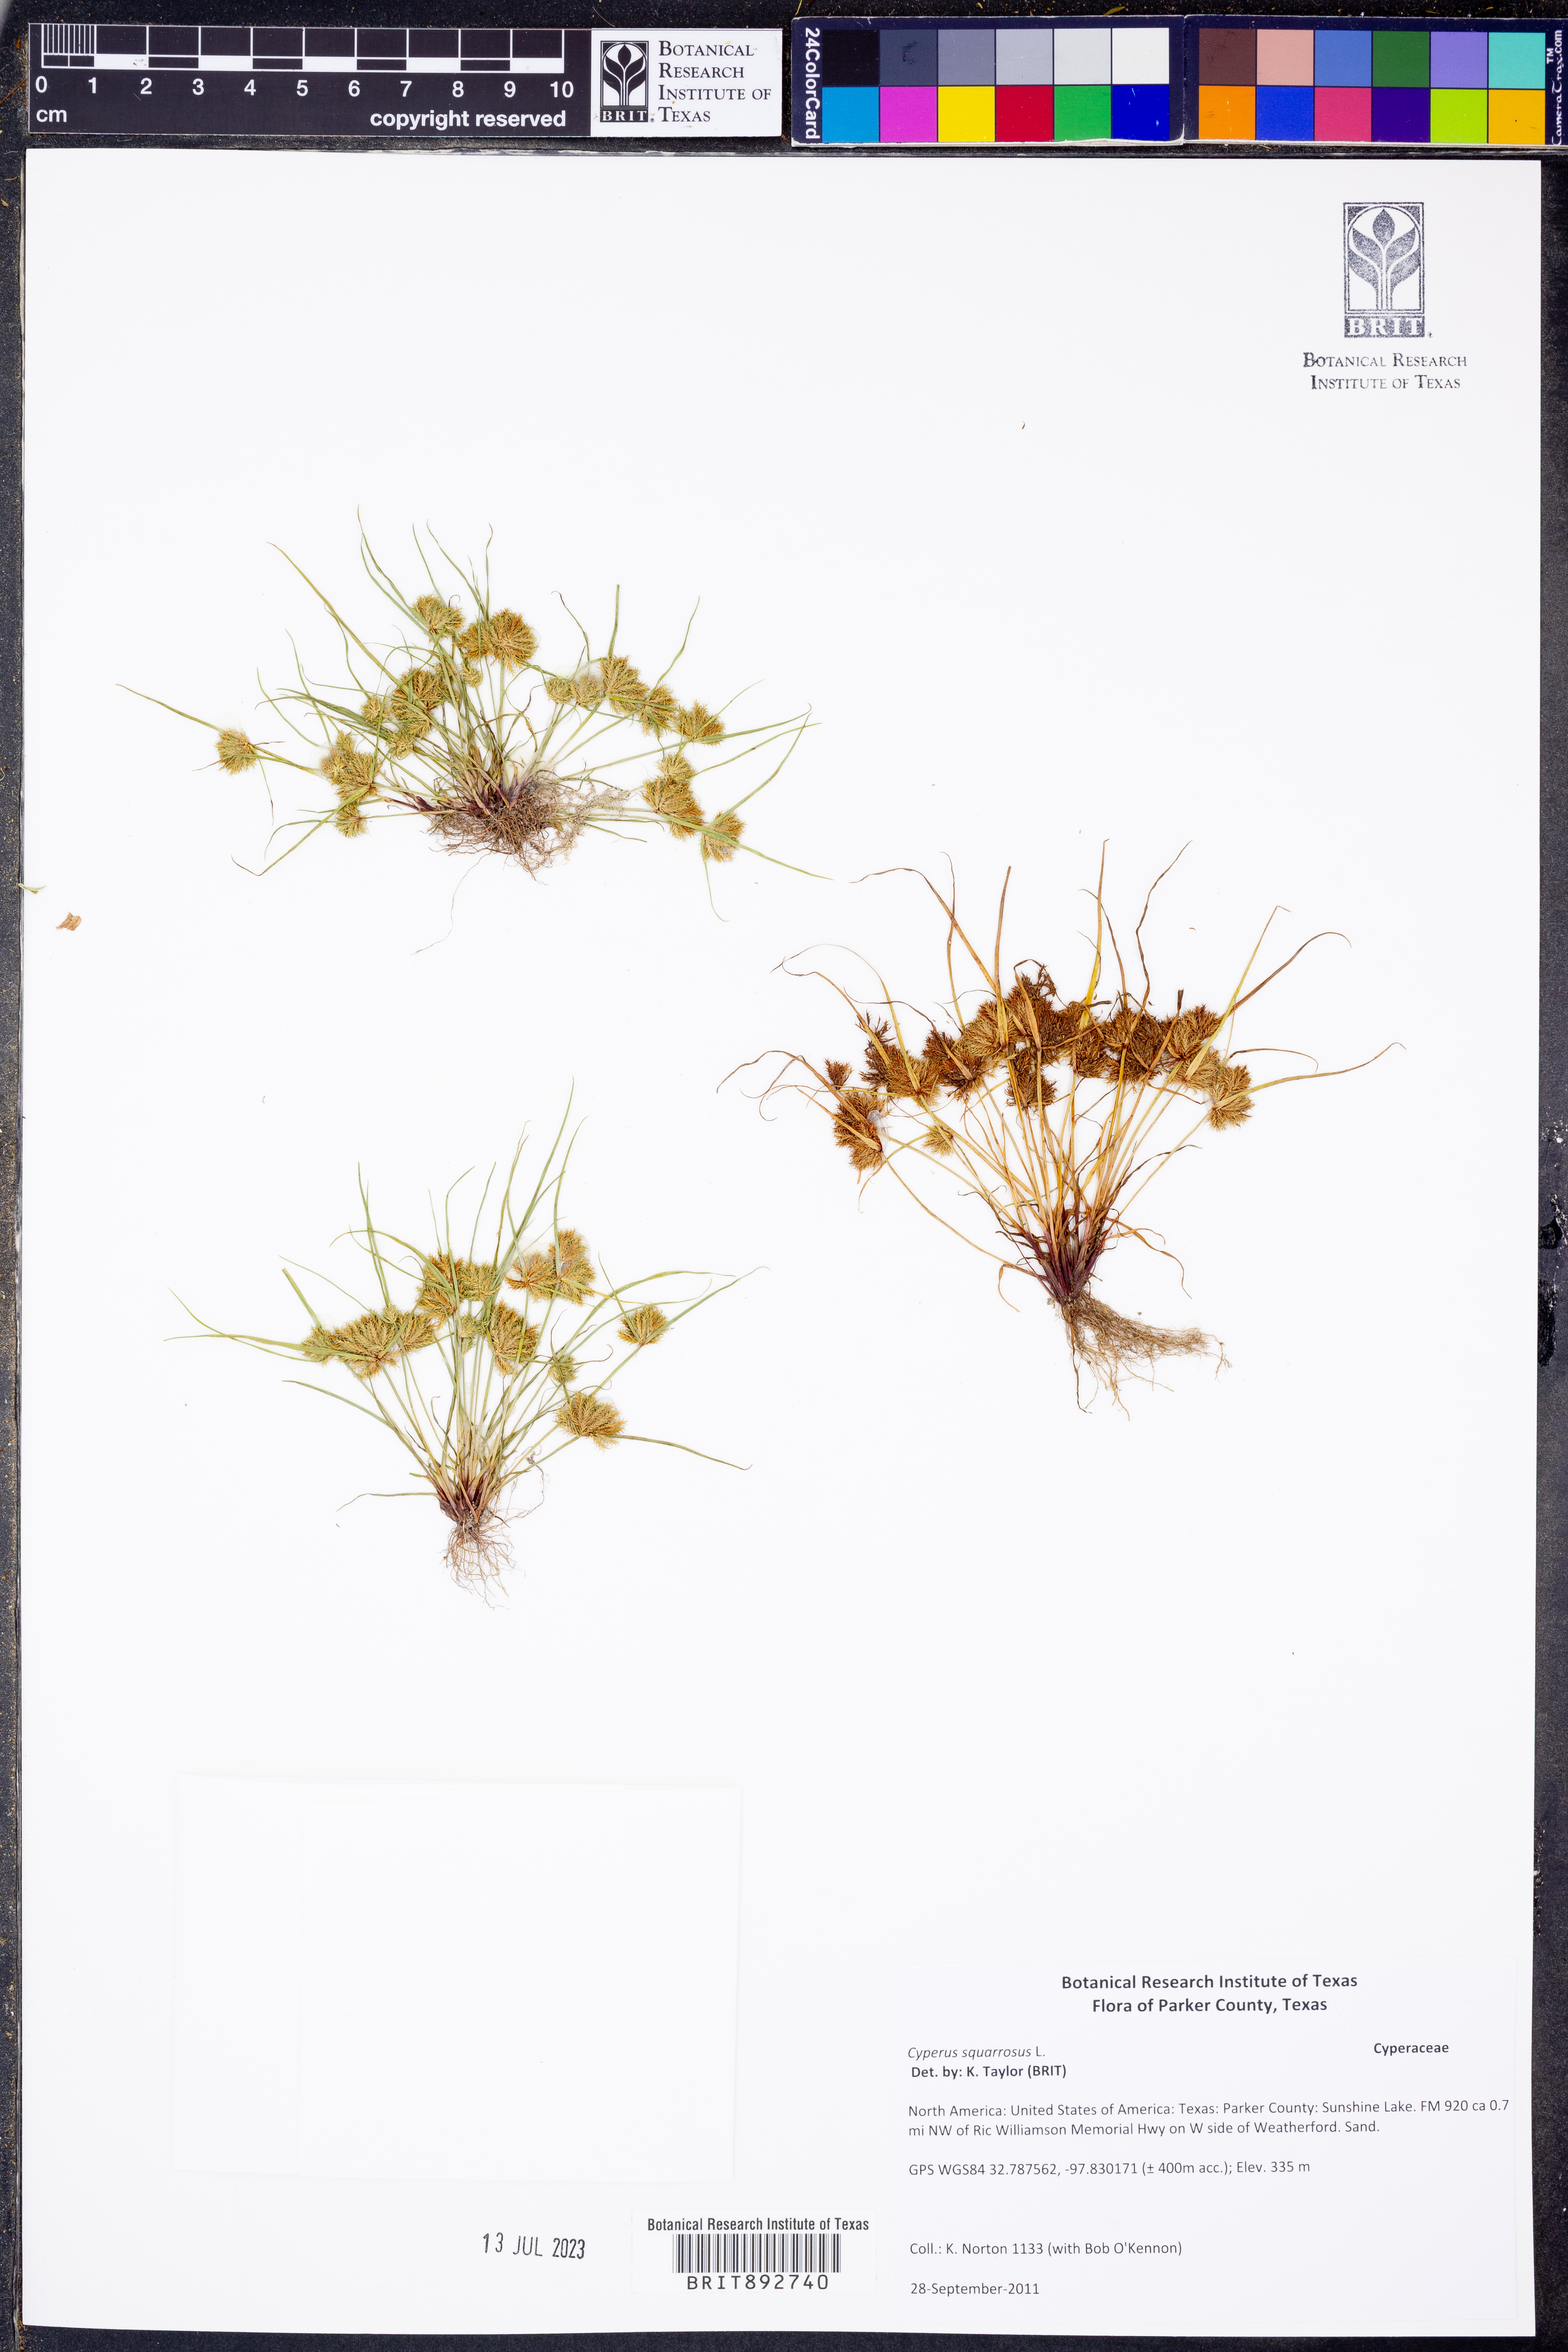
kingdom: Plantae
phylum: Tracheophyta
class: Liliopsida
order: Poales
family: Cyperaceae
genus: Cyperus
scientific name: Cyperus squarrosus
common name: Awned cyperus
